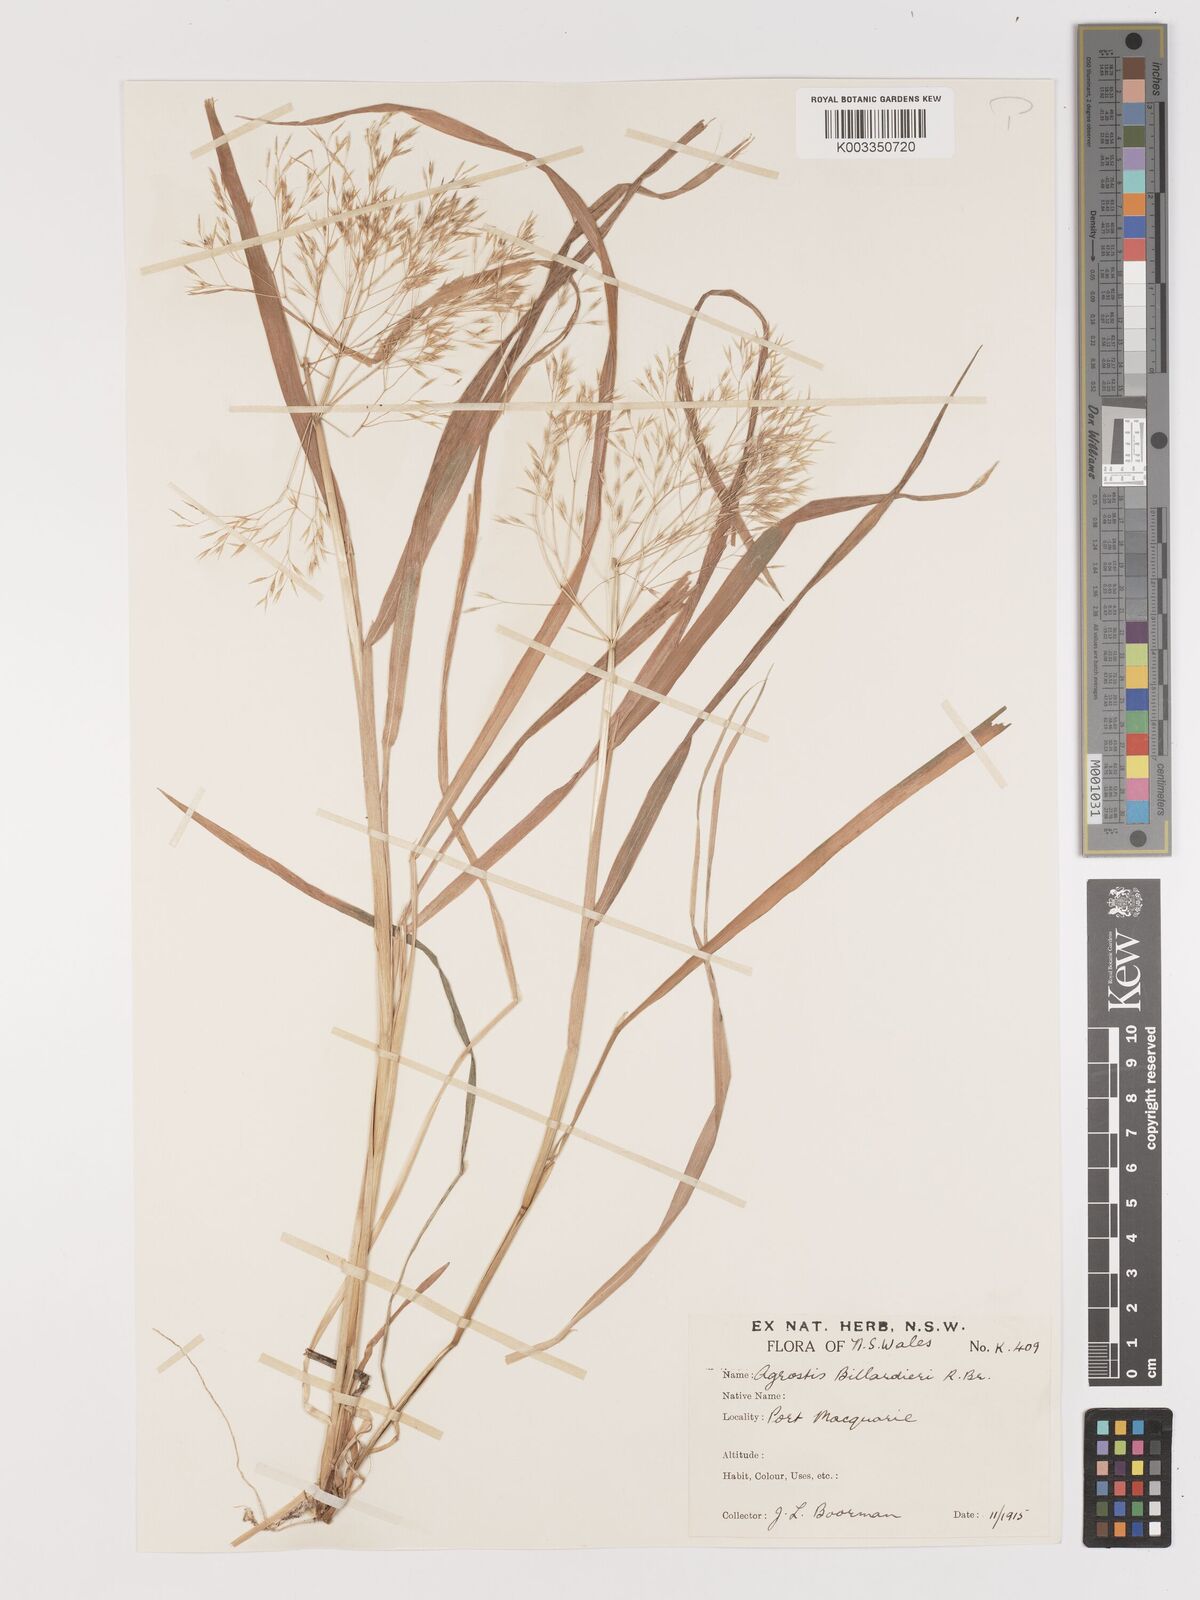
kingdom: Plantae
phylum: Tracheophyta
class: Liliopsida
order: Poales
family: Poaceae
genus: Lachnagrostis
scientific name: Lachnagrostis billardierei
